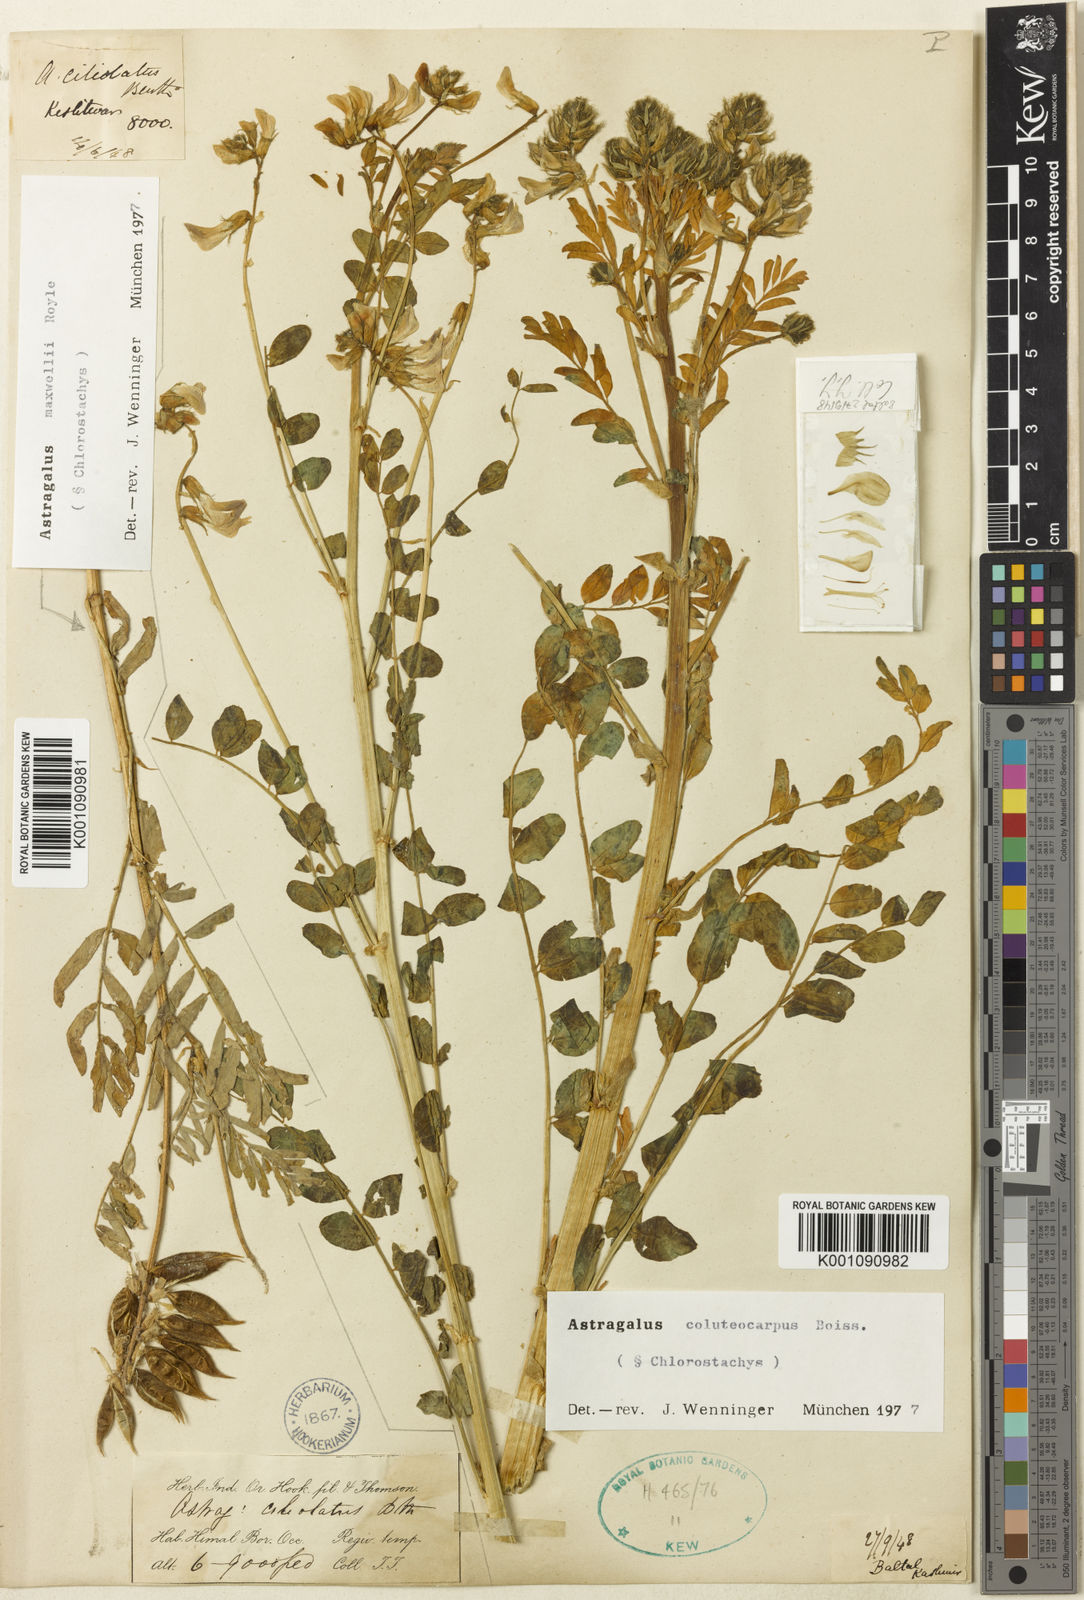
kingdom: Plantae
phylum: Tracheophyta
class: Magnoliopsida
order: Fabales
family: Fabaceae
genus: Astragalus
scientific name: Astragalus
